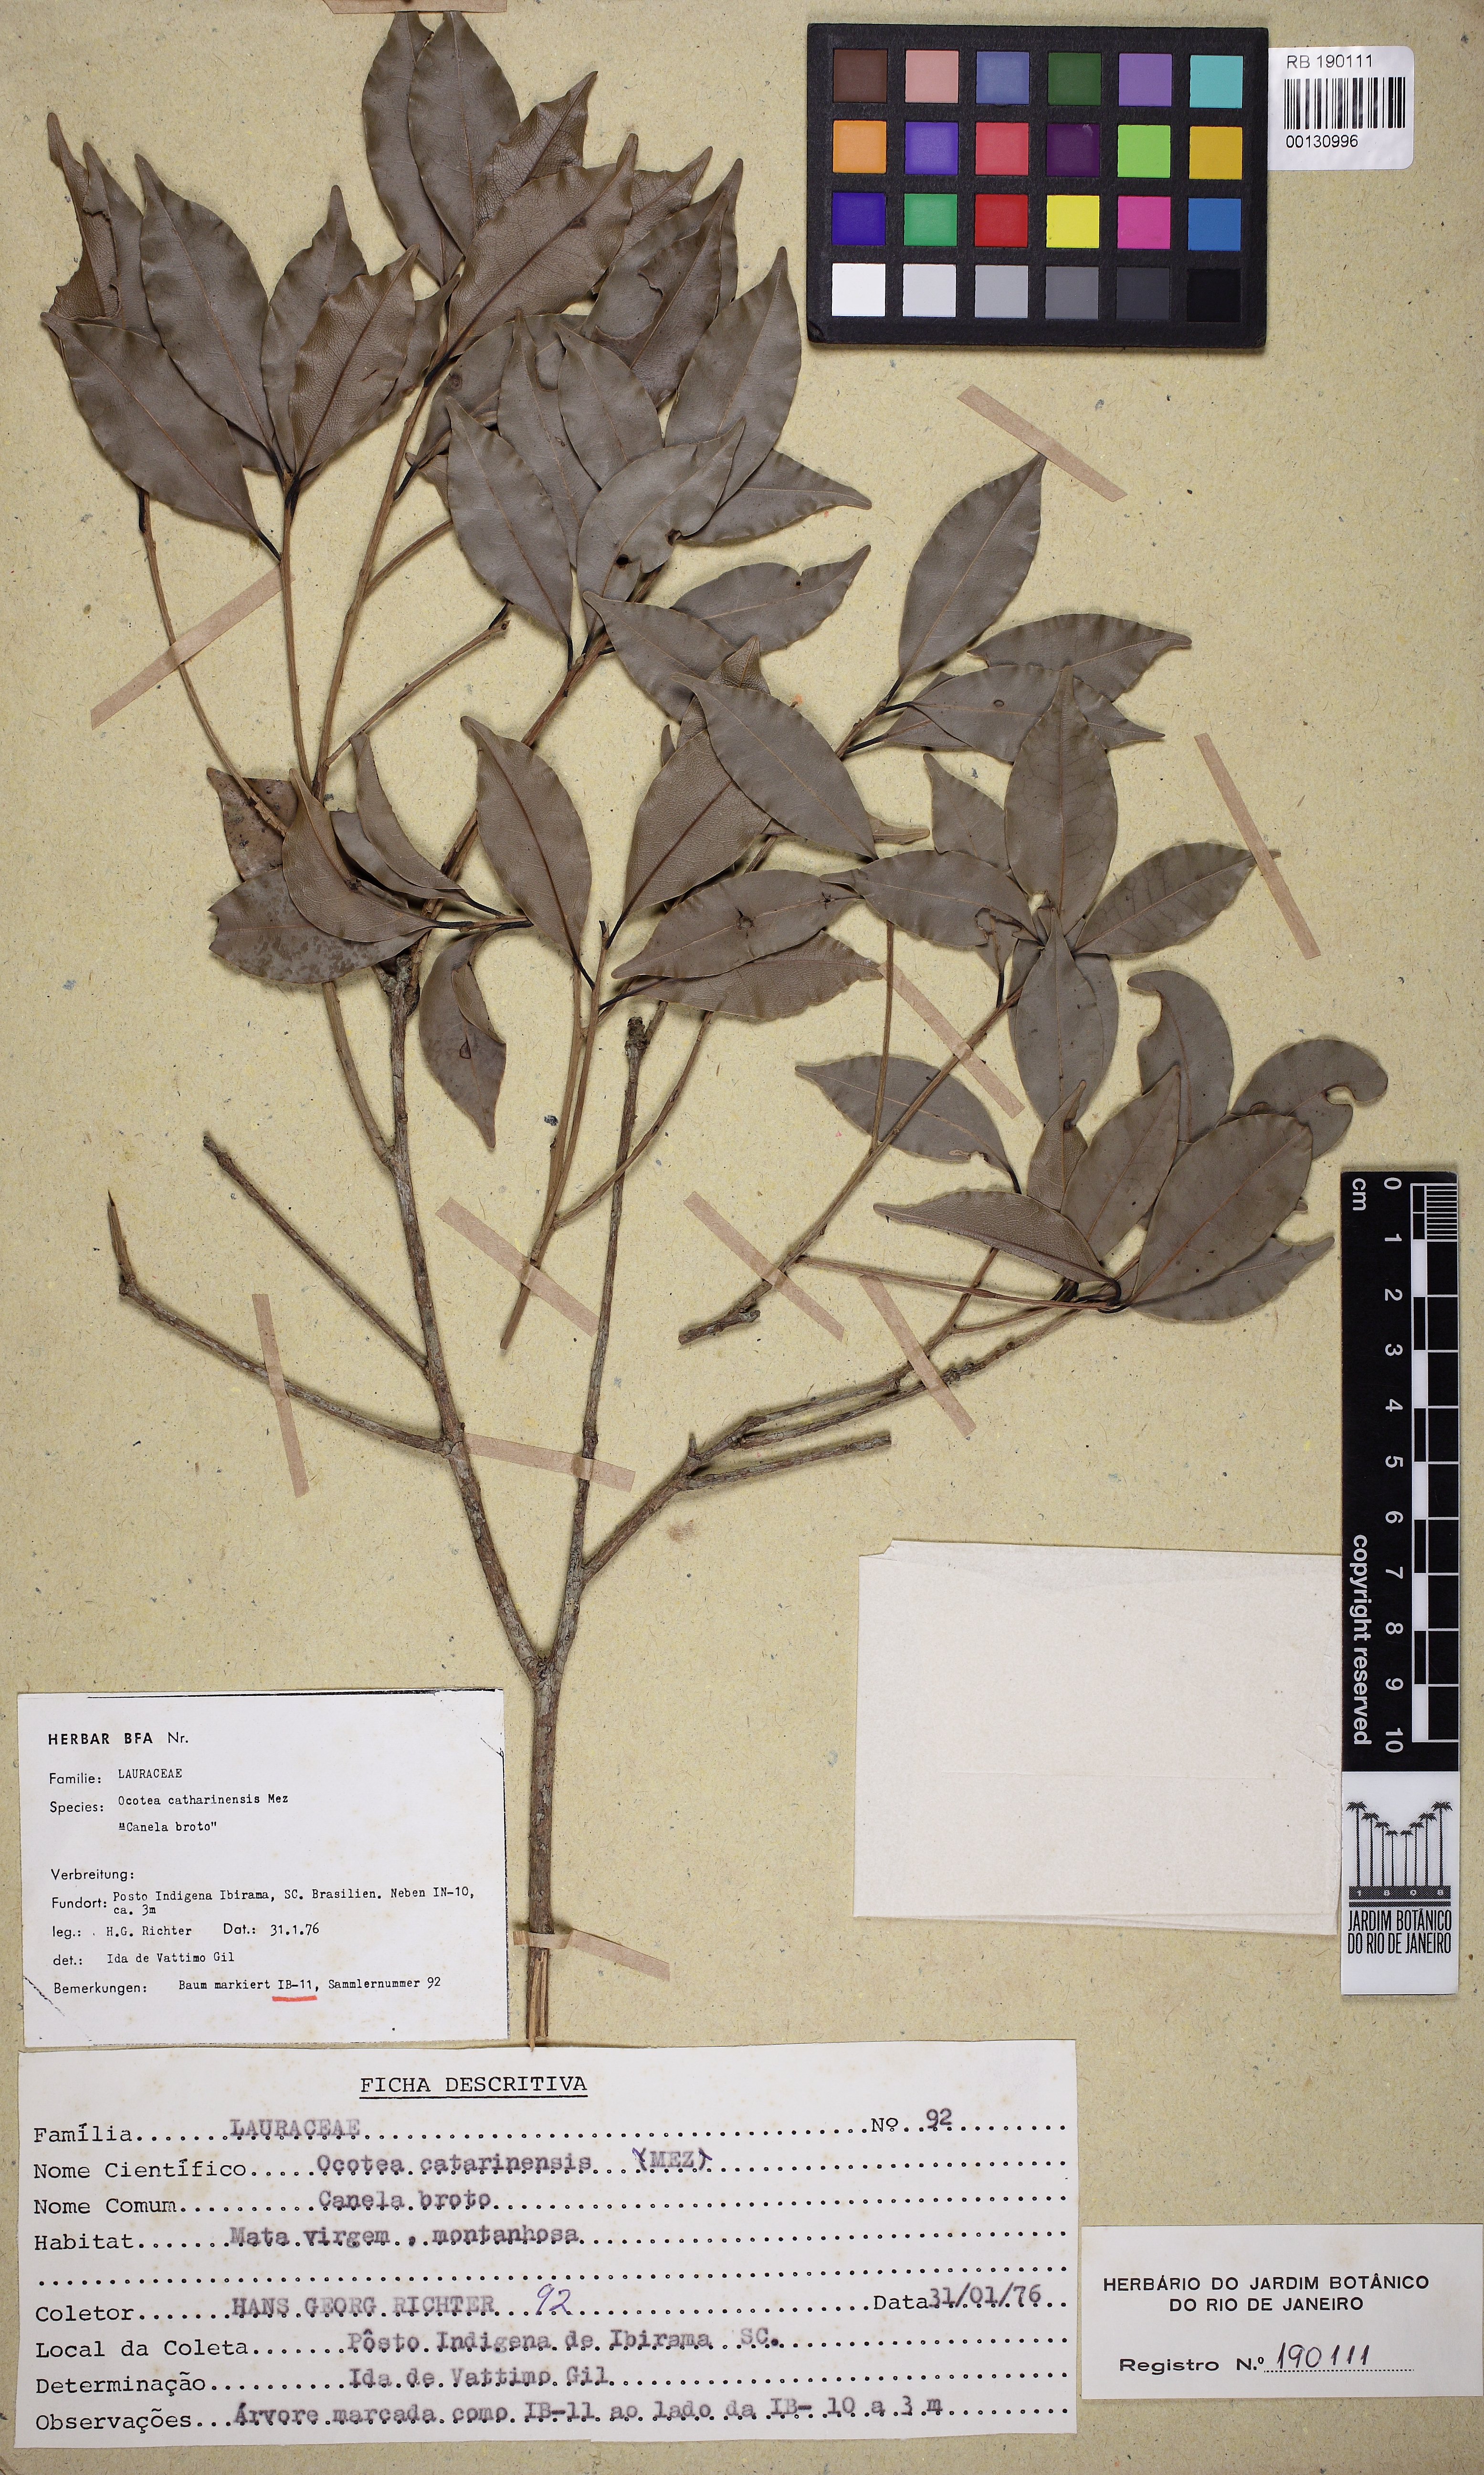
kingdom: Plantae
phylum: Tracheophyta
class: Magnoliopsida
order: Laurales
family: Lauraceae
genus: Ocotea
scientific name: Ocotea catharinensis
